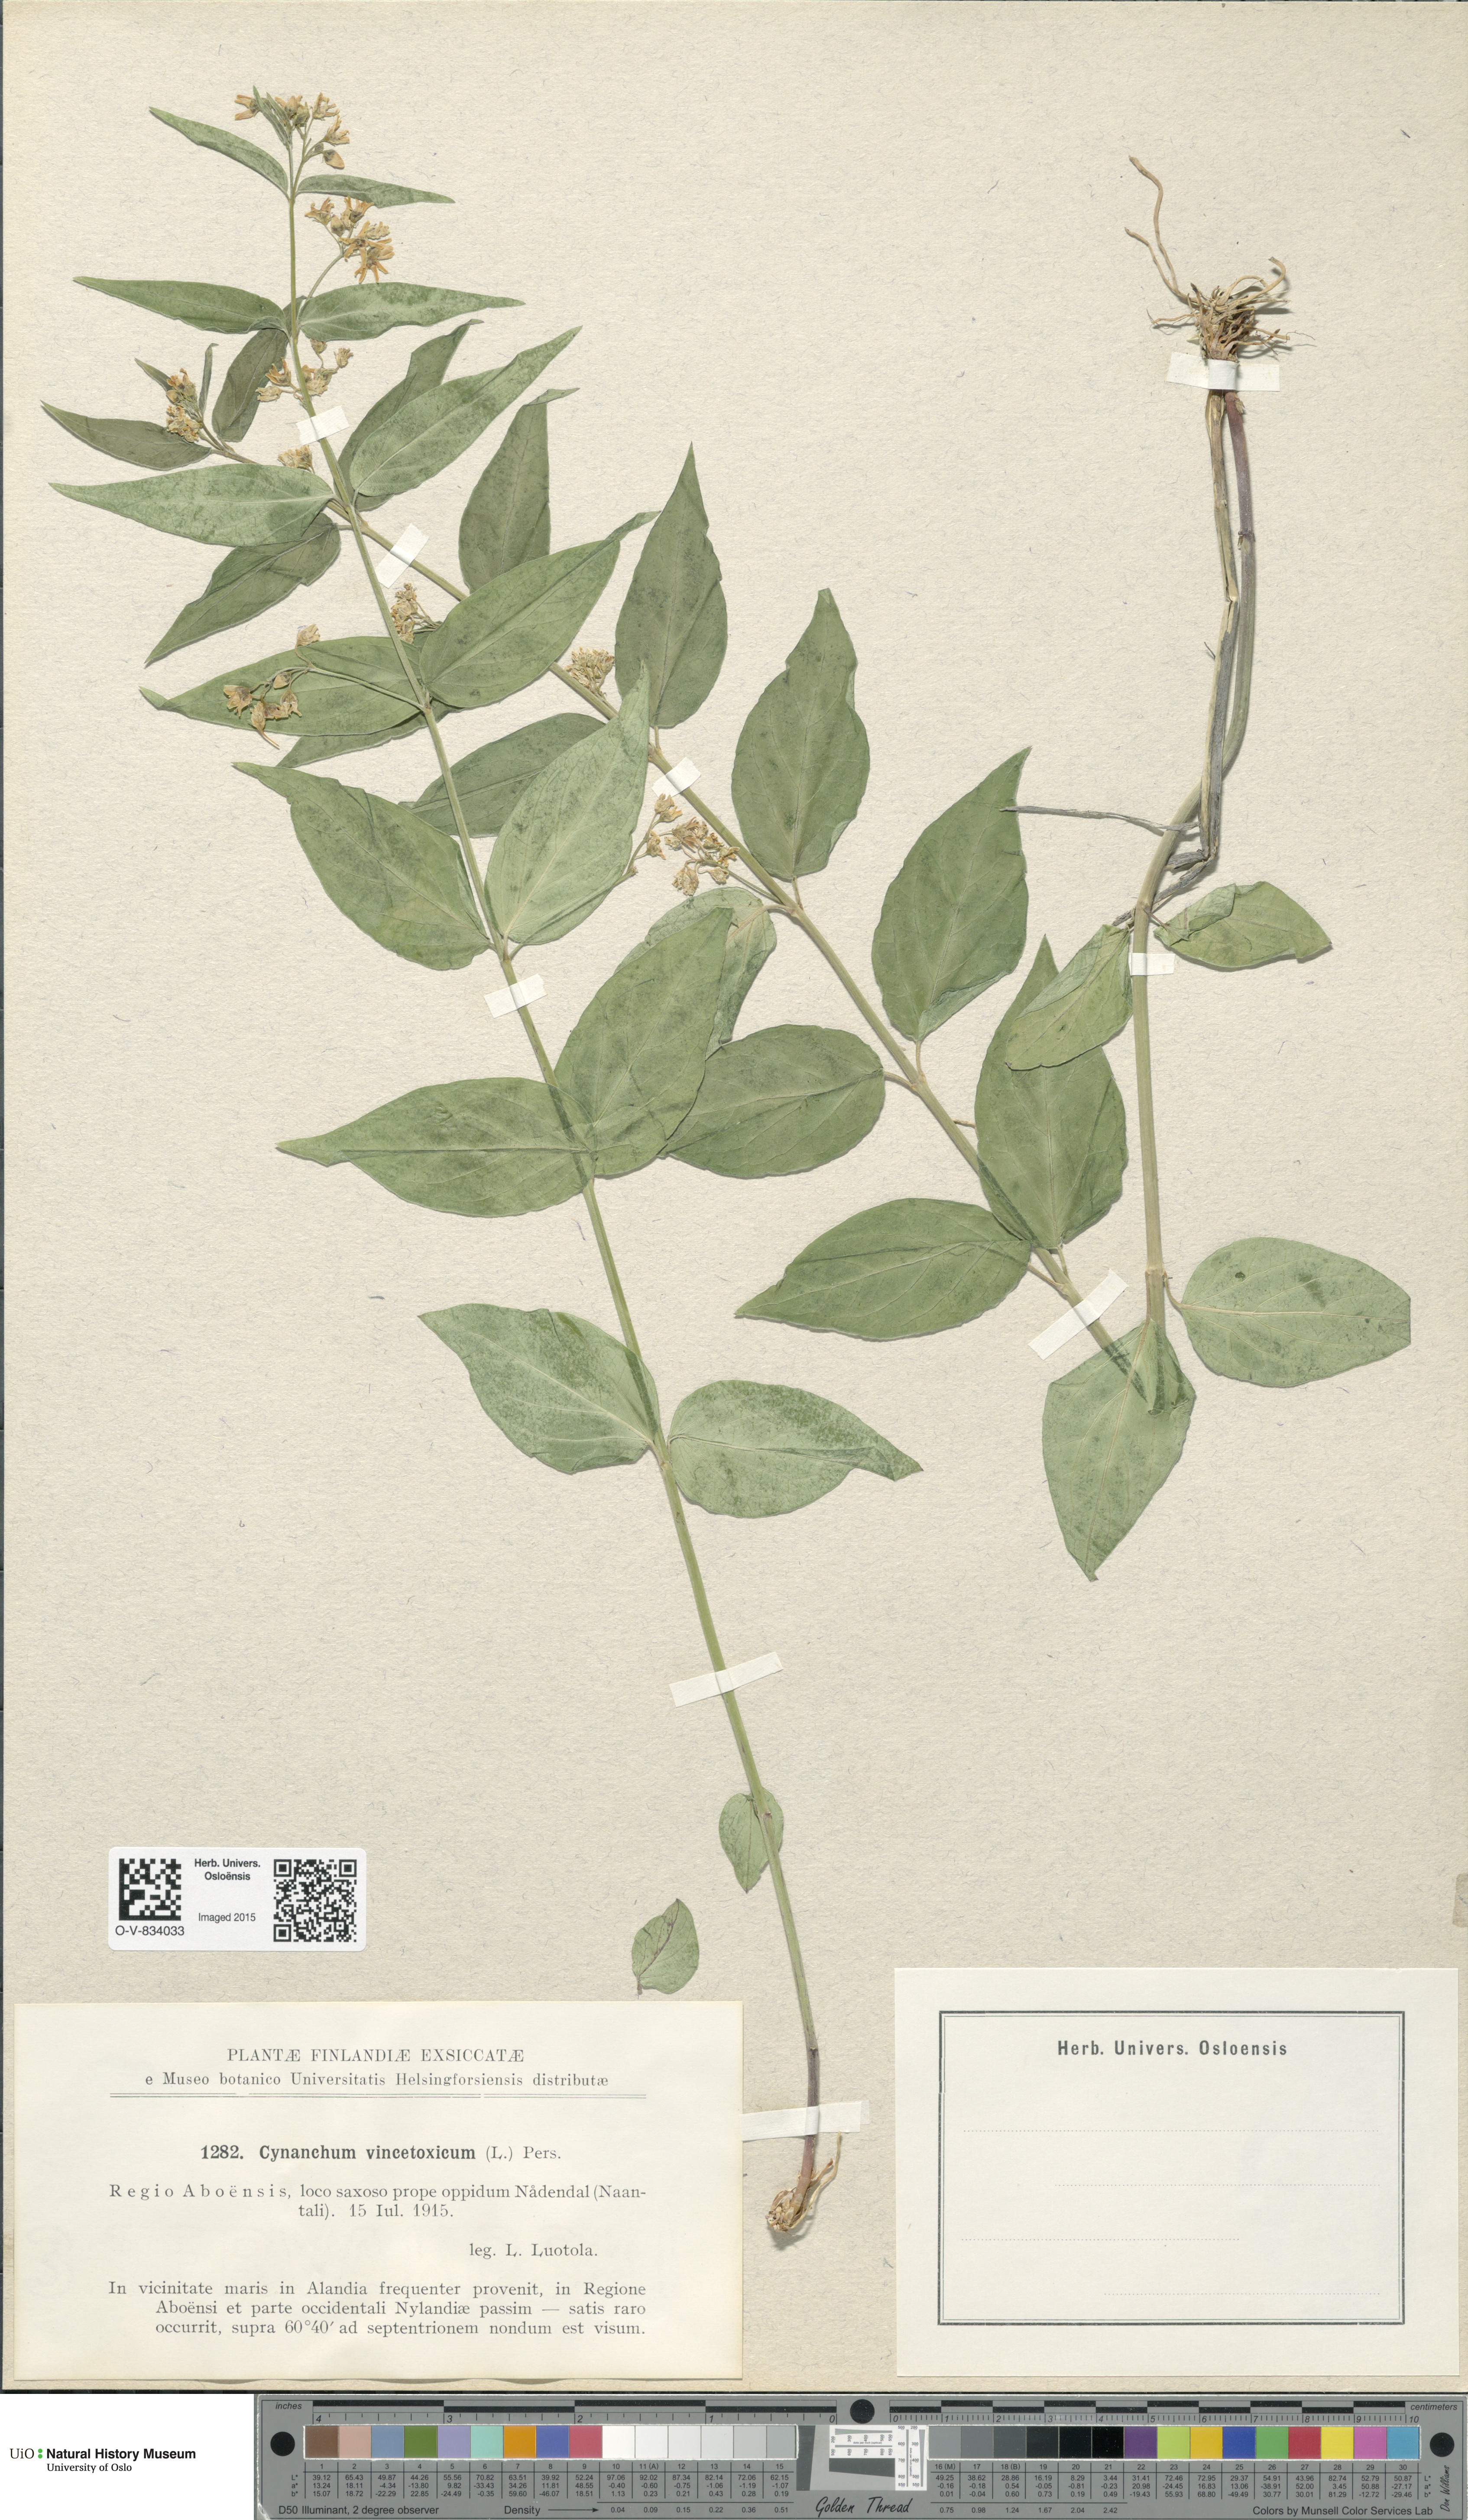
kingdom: Plantae
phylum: Tracheophyta
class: Magnoliopsida
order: Gentianales
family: Apocynaceae
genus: Vincetoxicum
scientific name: Vincetoxicum hirundinaria
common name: White swallowwort
